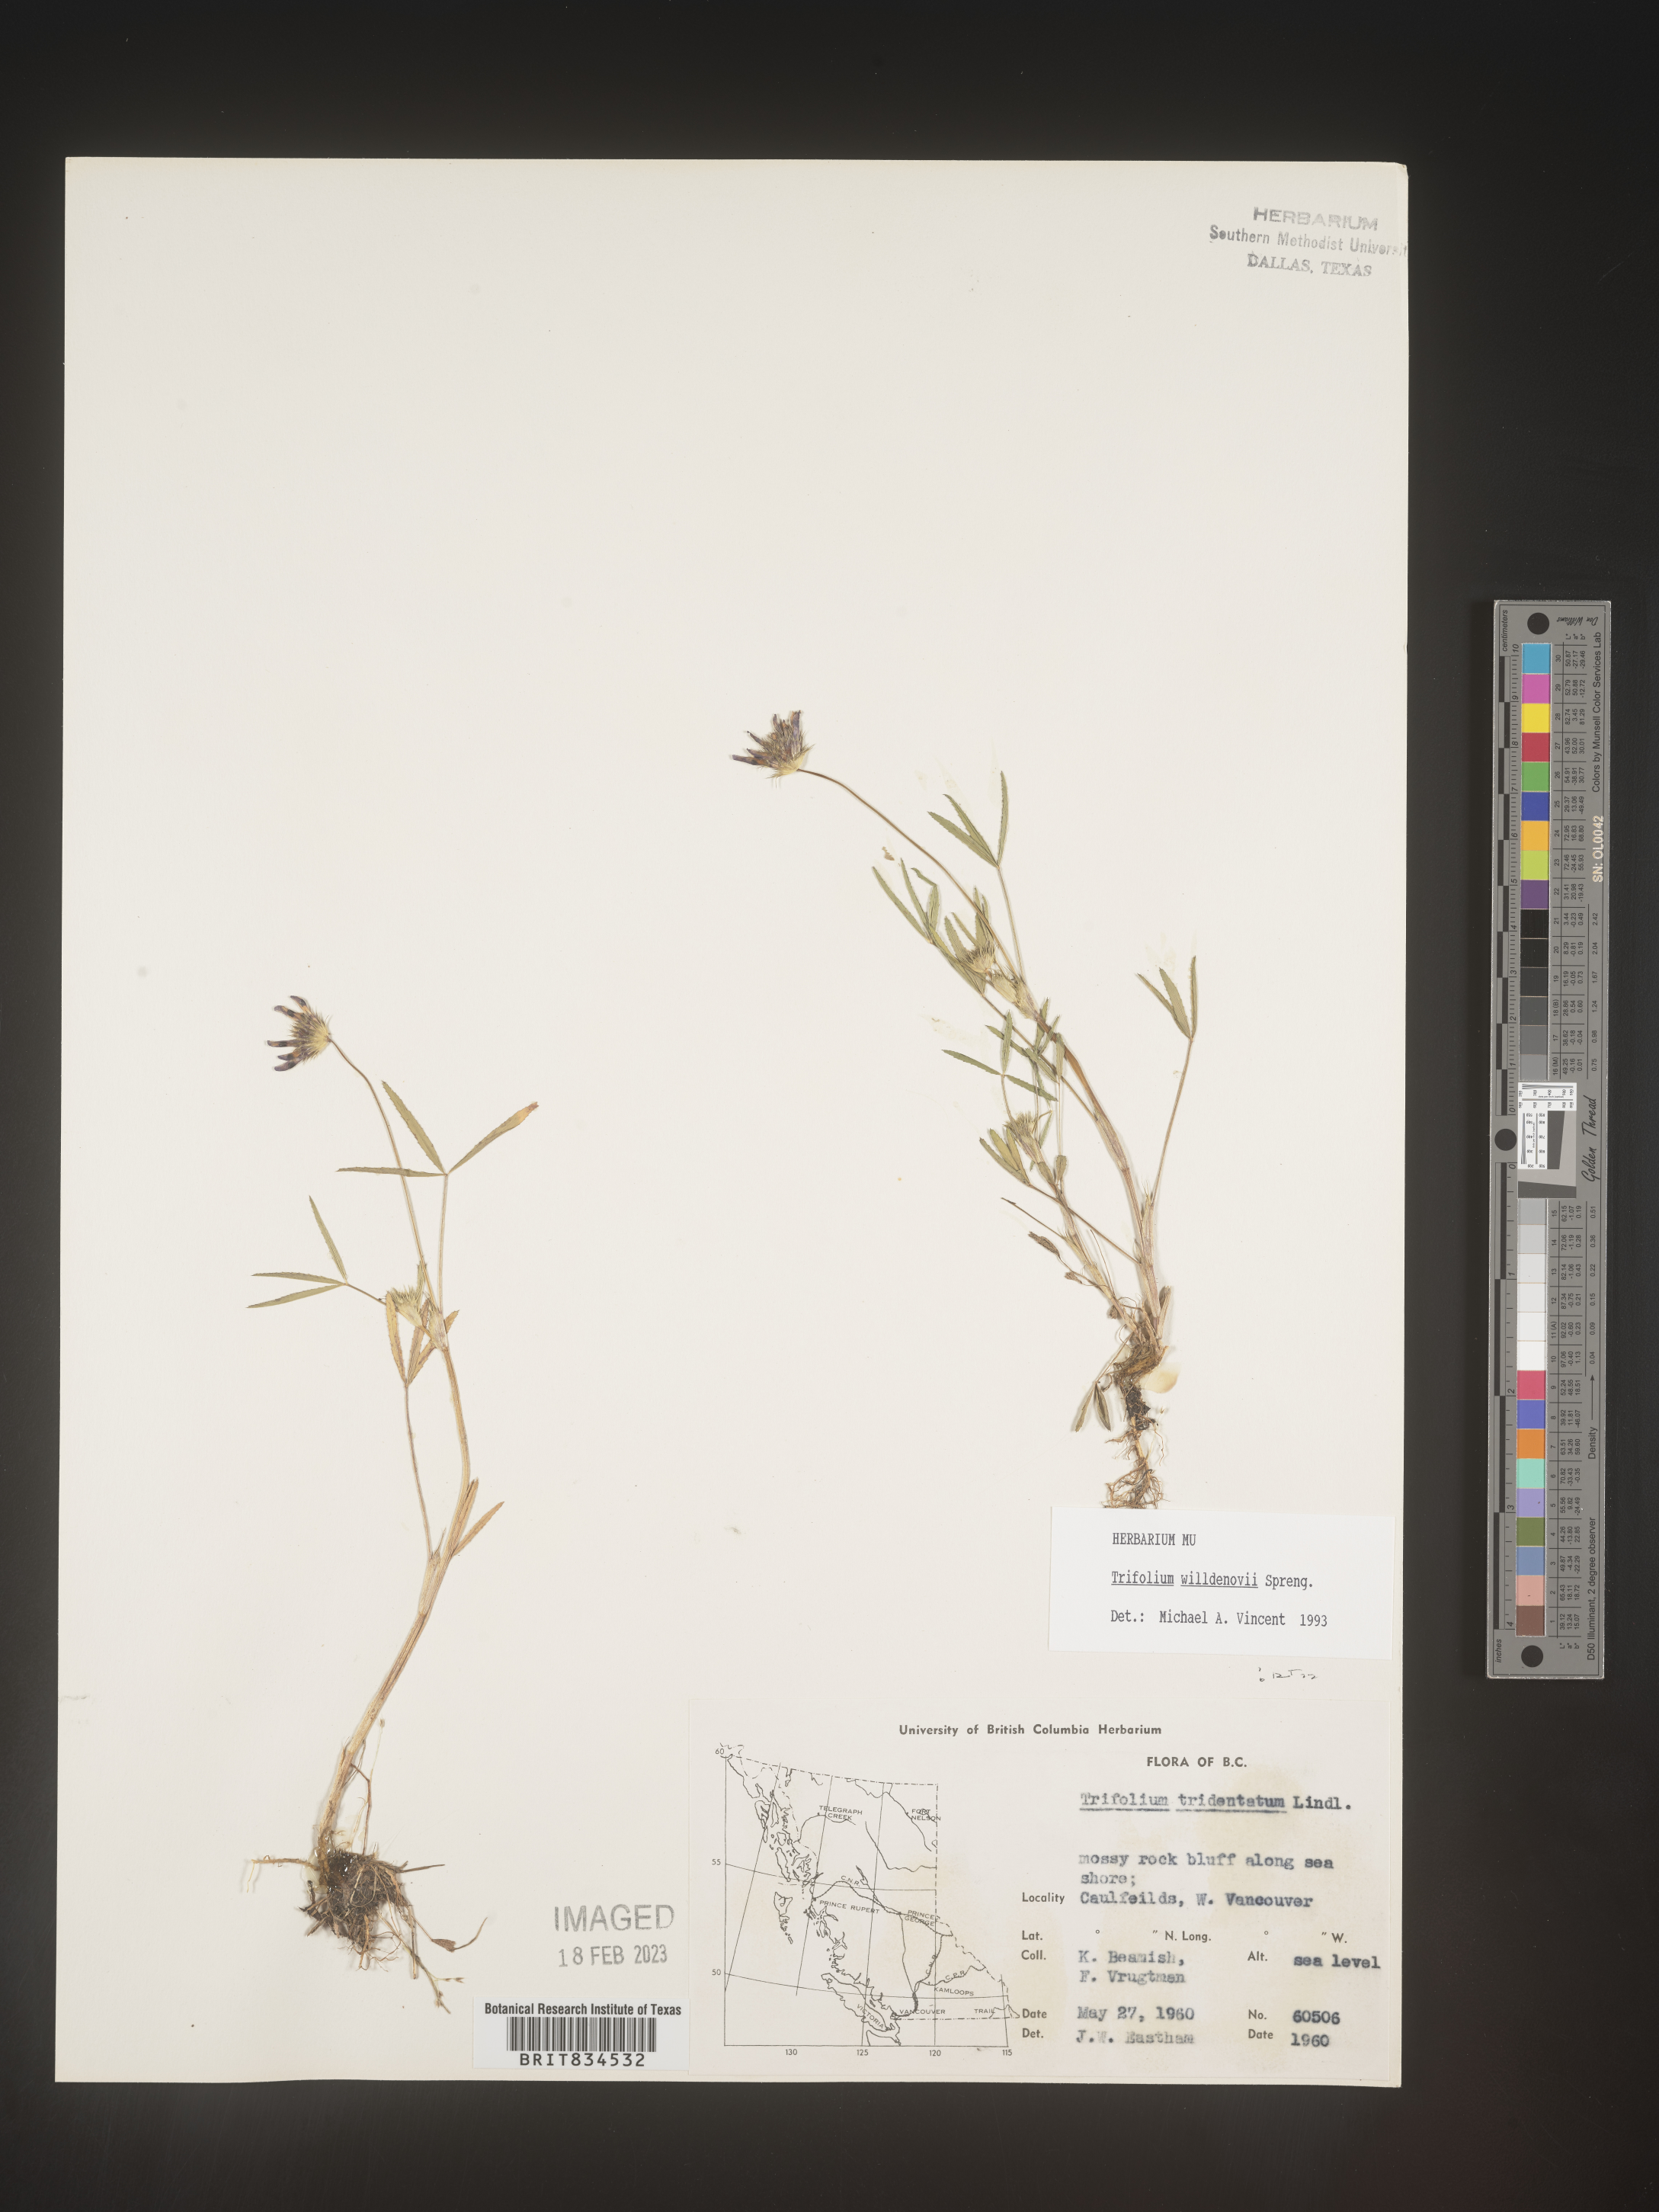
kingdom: Plantae
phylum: Tracheophyta
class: Magnoliopsida
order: Fabales
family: Fabaceae
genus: Trifolium
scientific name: Trifolium
